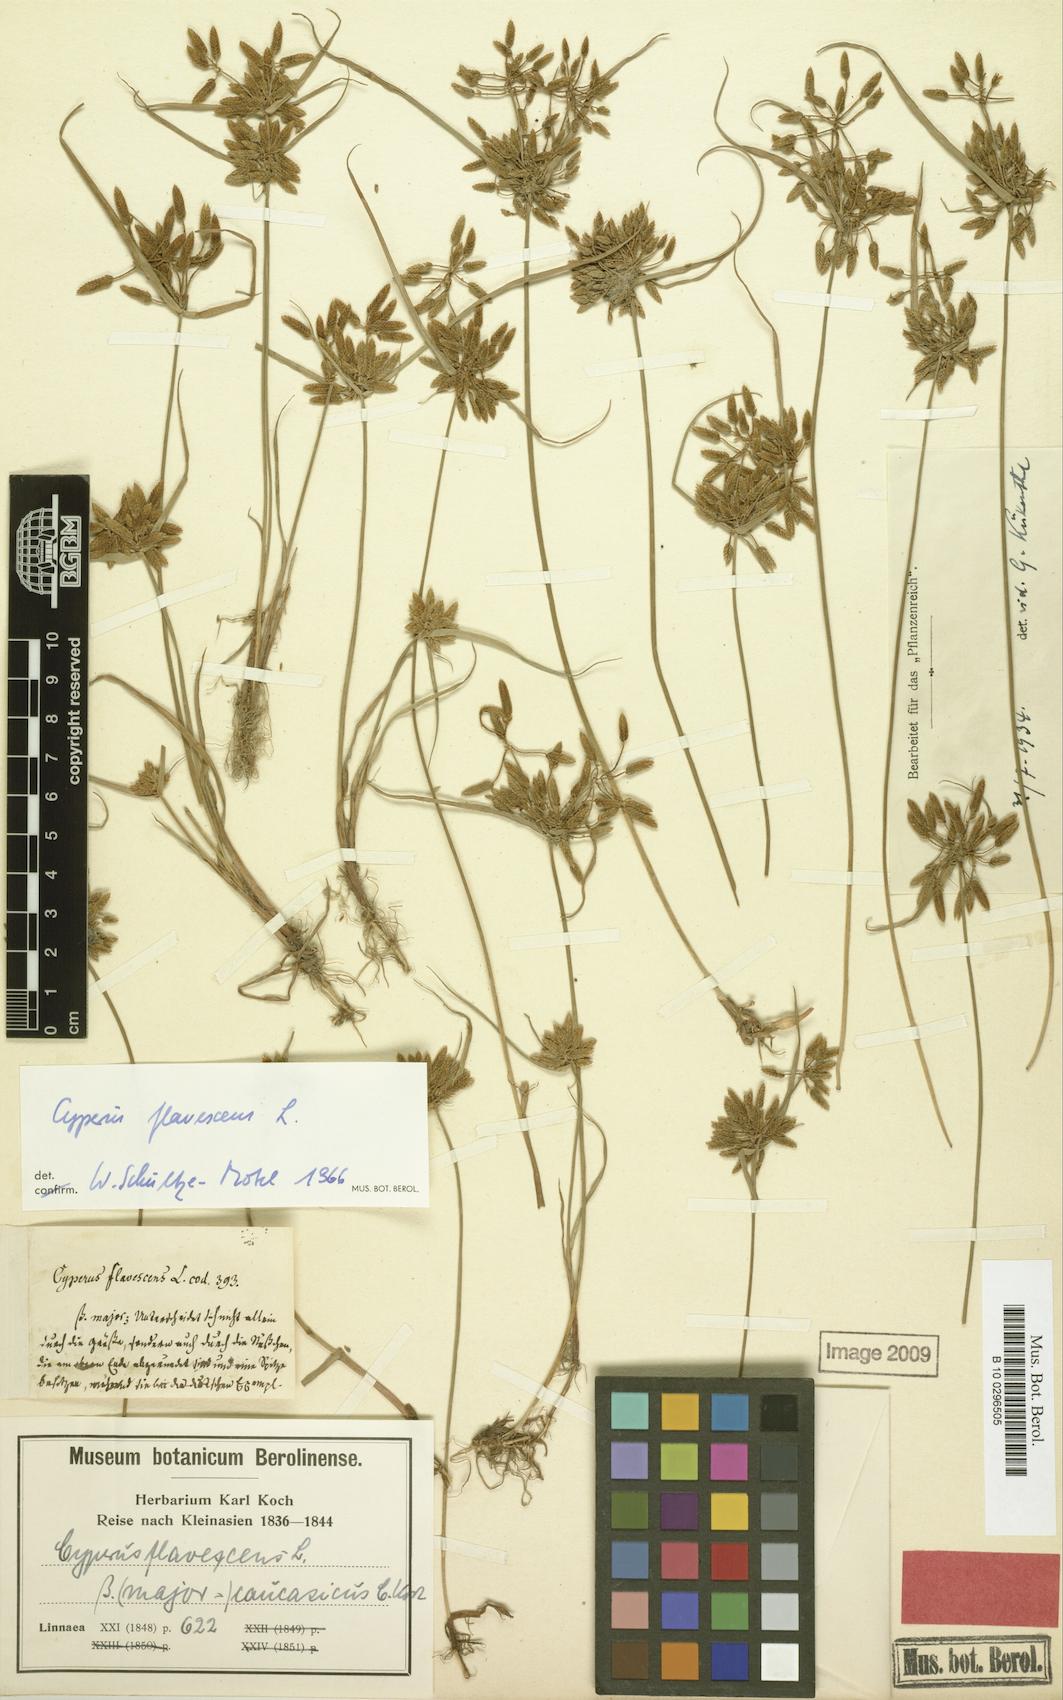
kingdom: Plantae
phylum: Tracheophyta
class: Liliopsida
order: Poales
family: Cyperaceae
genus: Cyperus
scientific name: Cyperus flavescens
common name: Yellow galingale
